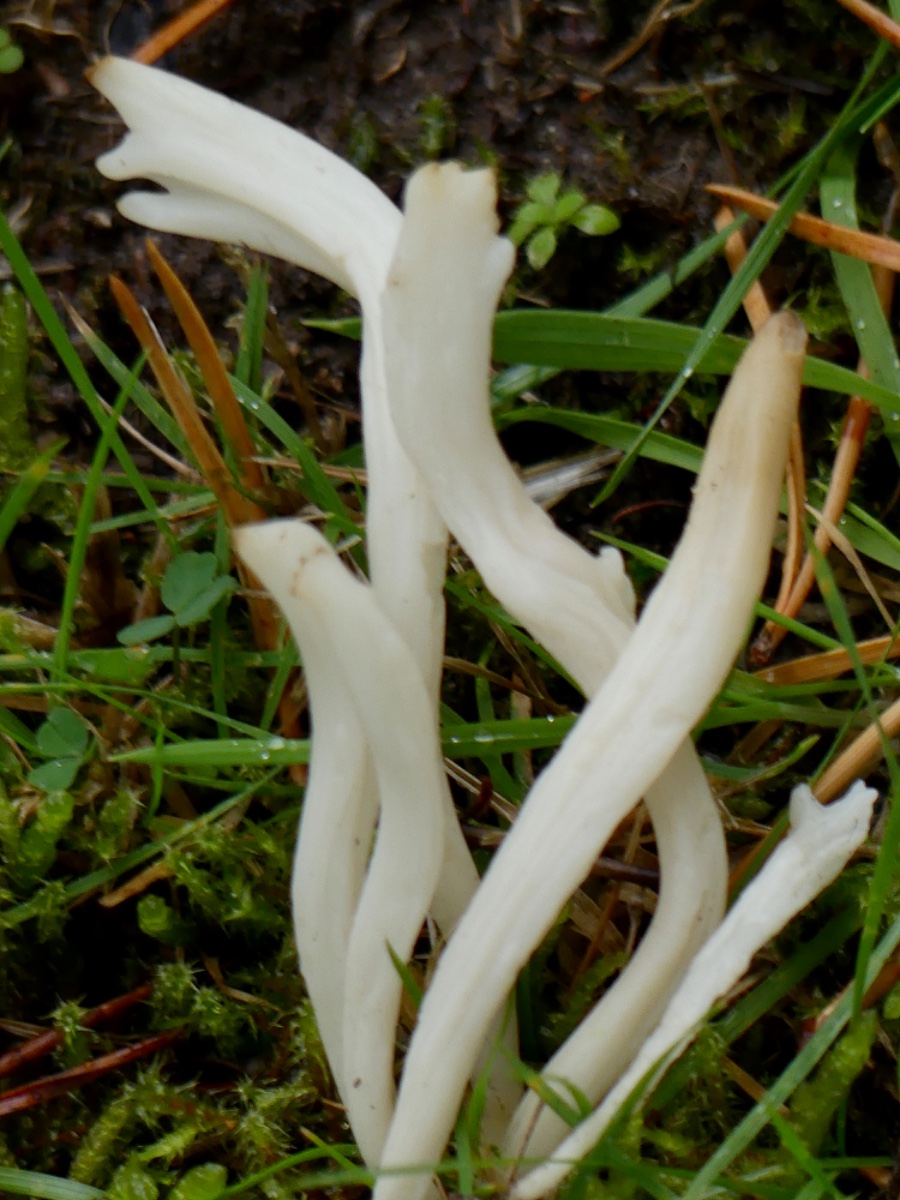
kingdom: Fungi
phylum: Basidiomycota
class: Agaricomycetes
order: Agaricales
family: Clavariaceae
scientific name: Clavariaceae
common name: køllesvampfamilien
